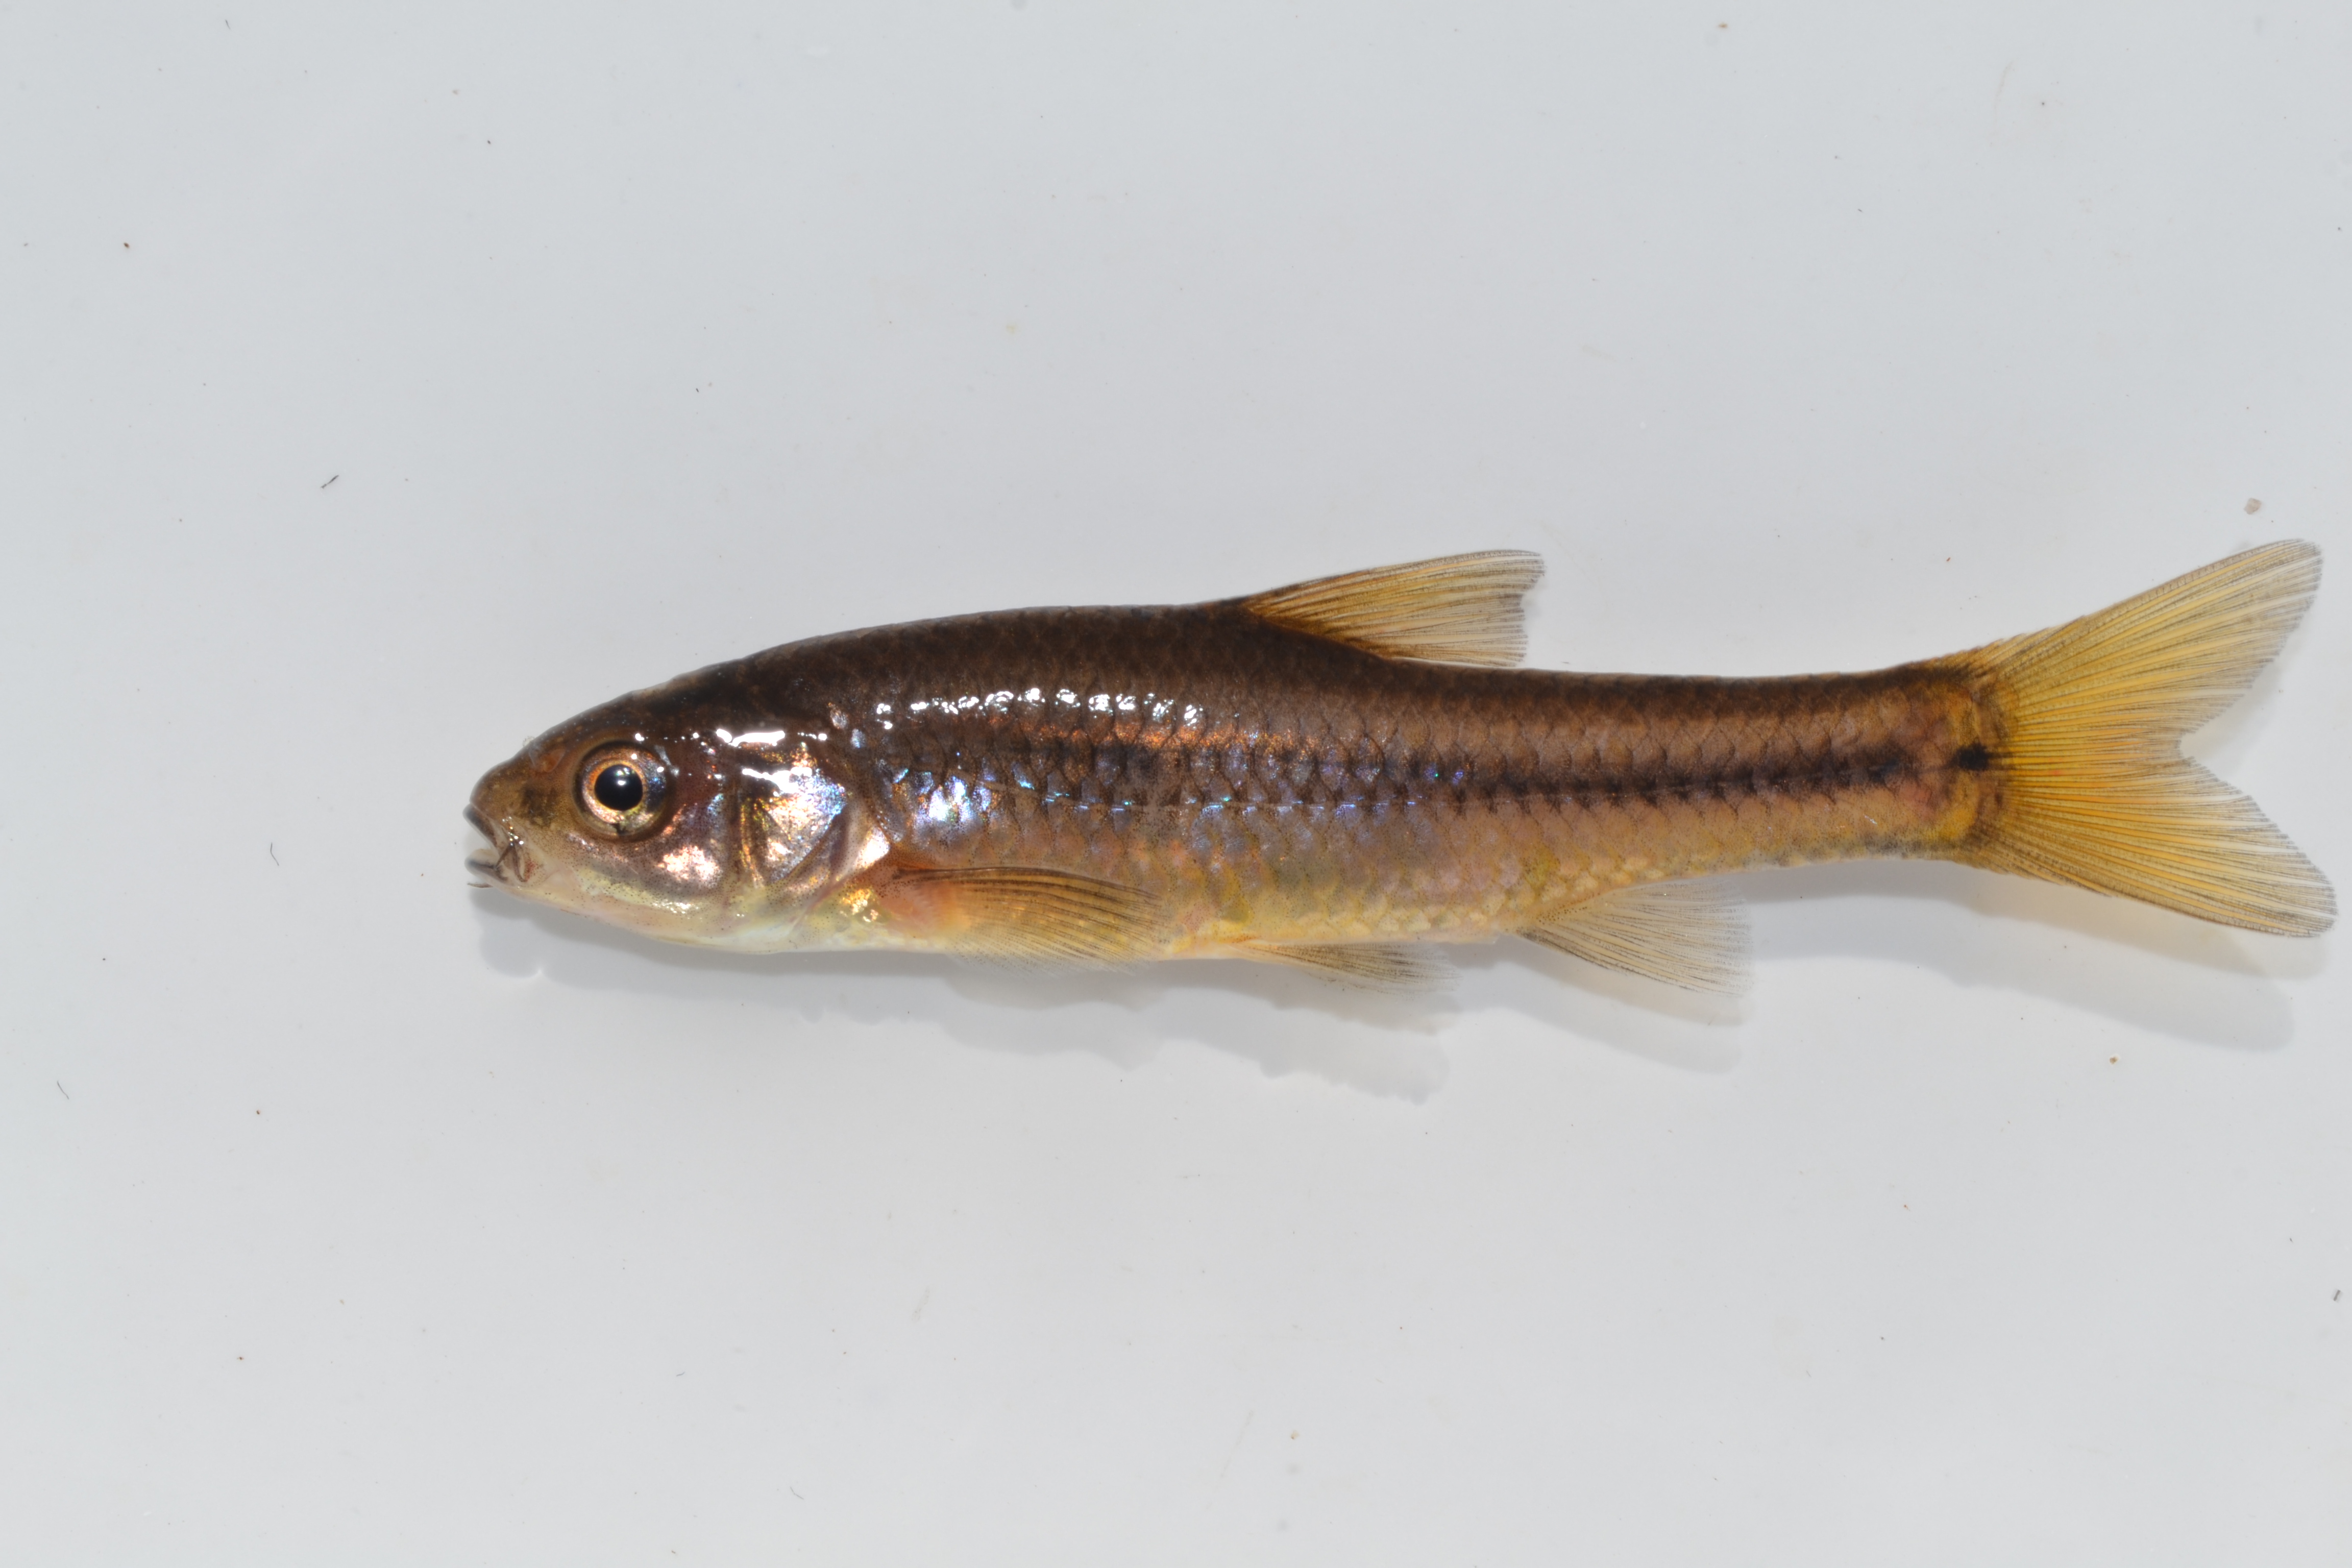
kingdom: Animalia
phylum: Chordata
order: Cypriniformes
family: Cyprinidae
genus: Enteromius
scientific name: Enteromius treurensis
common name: Treur river barb
